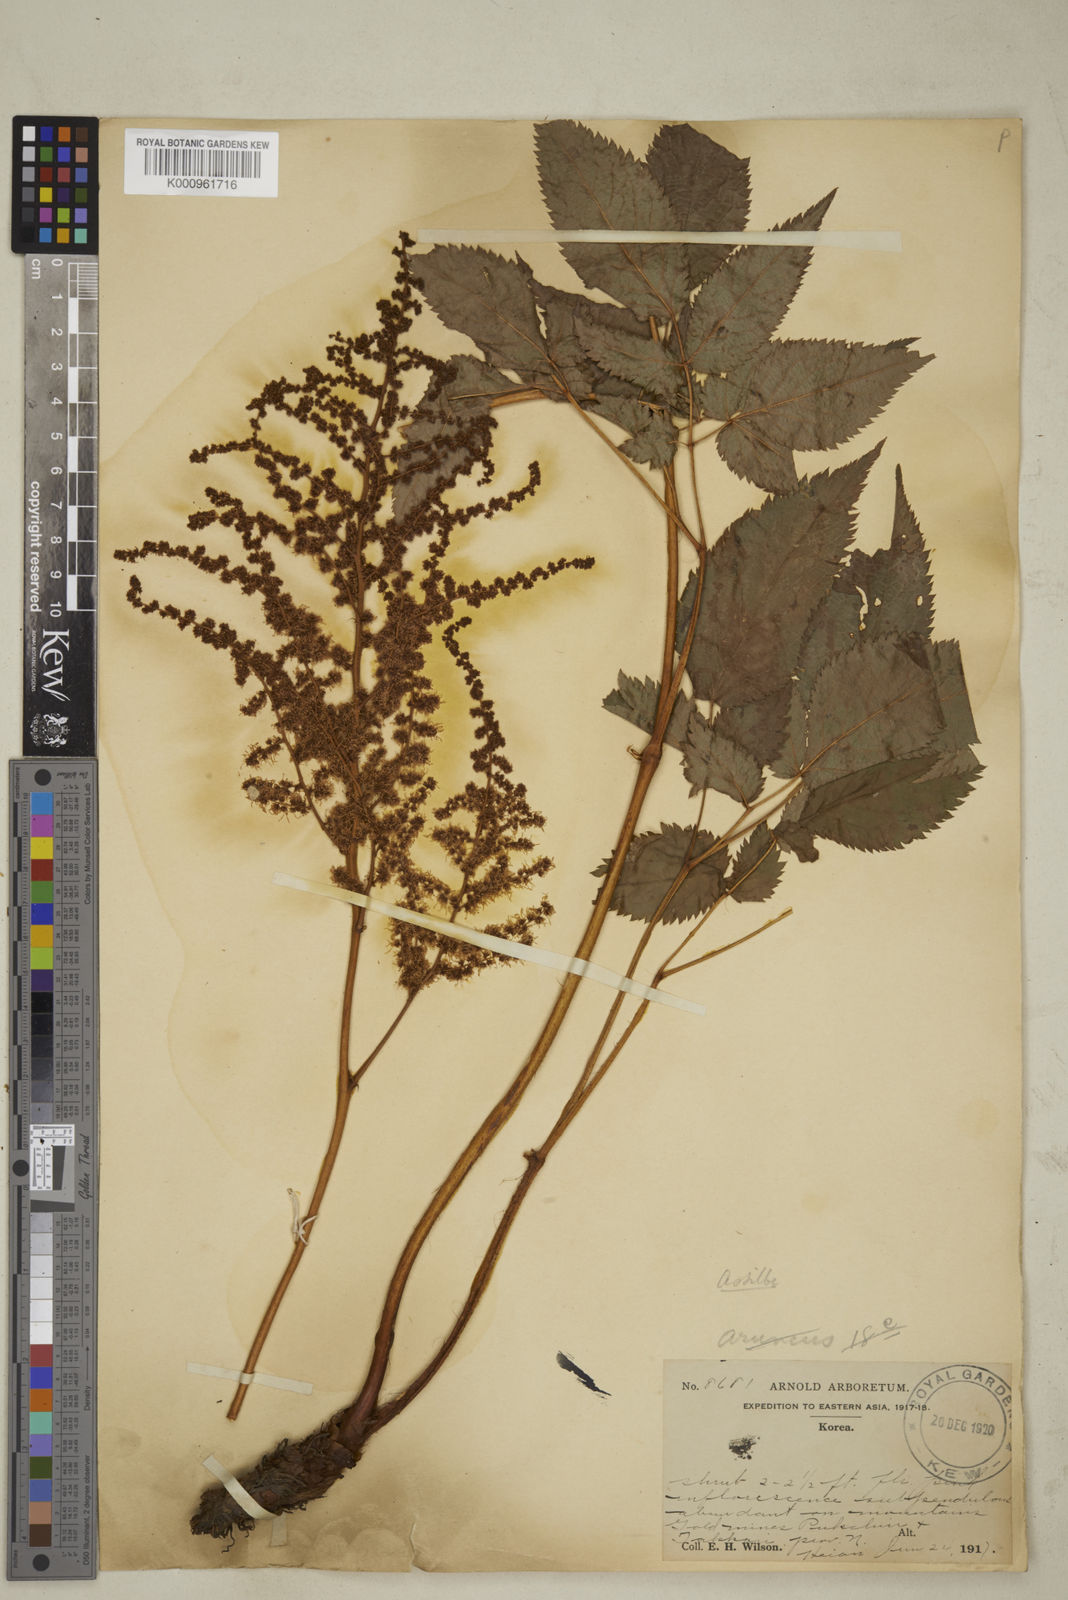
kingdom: Plantae
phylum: Tracheophyta
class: Magnoliopsida
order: Saxifragales
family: Saxifragaceae
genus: Astilbe
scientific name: Astilbe grandis
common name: Korean astilbe
